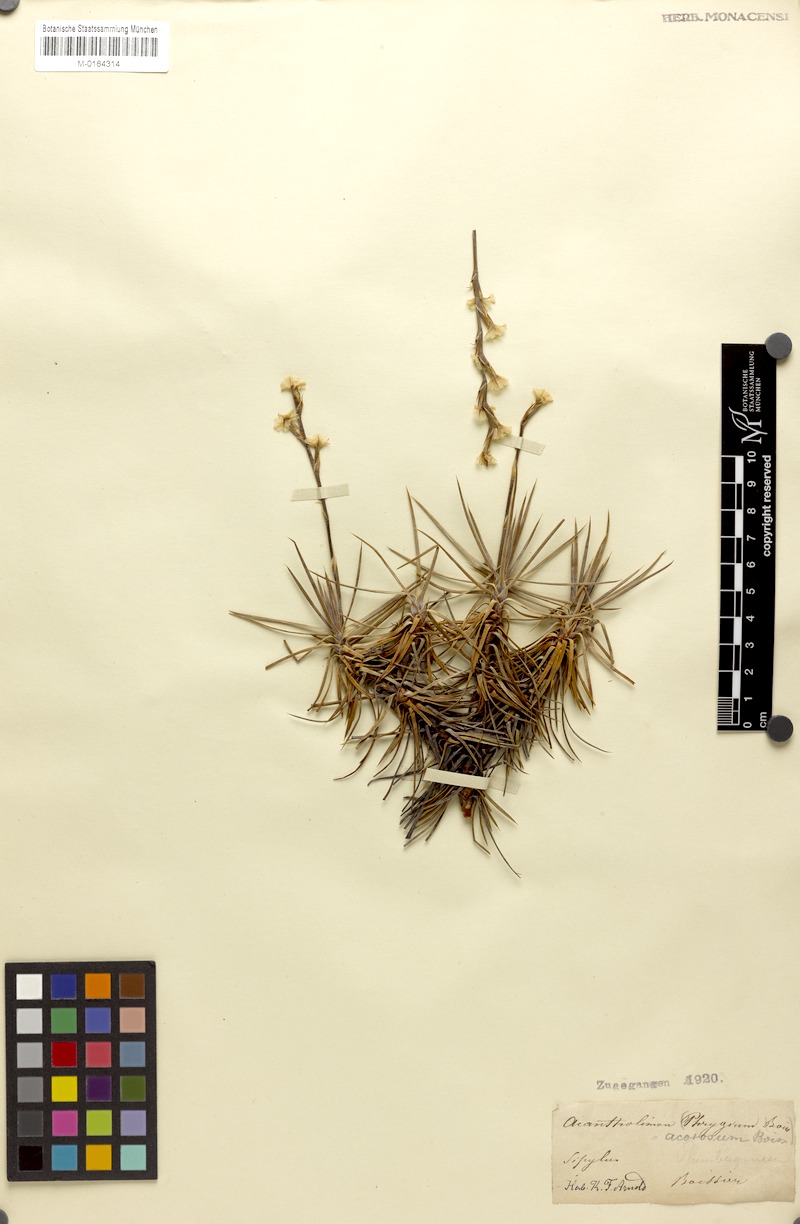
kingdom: Plantae
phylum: Tracheophyta
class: Magnoliopsida
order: Caryophyllales
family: Plumbaginaceae
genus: Acantholimon
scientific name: Acantholimon acerosum
